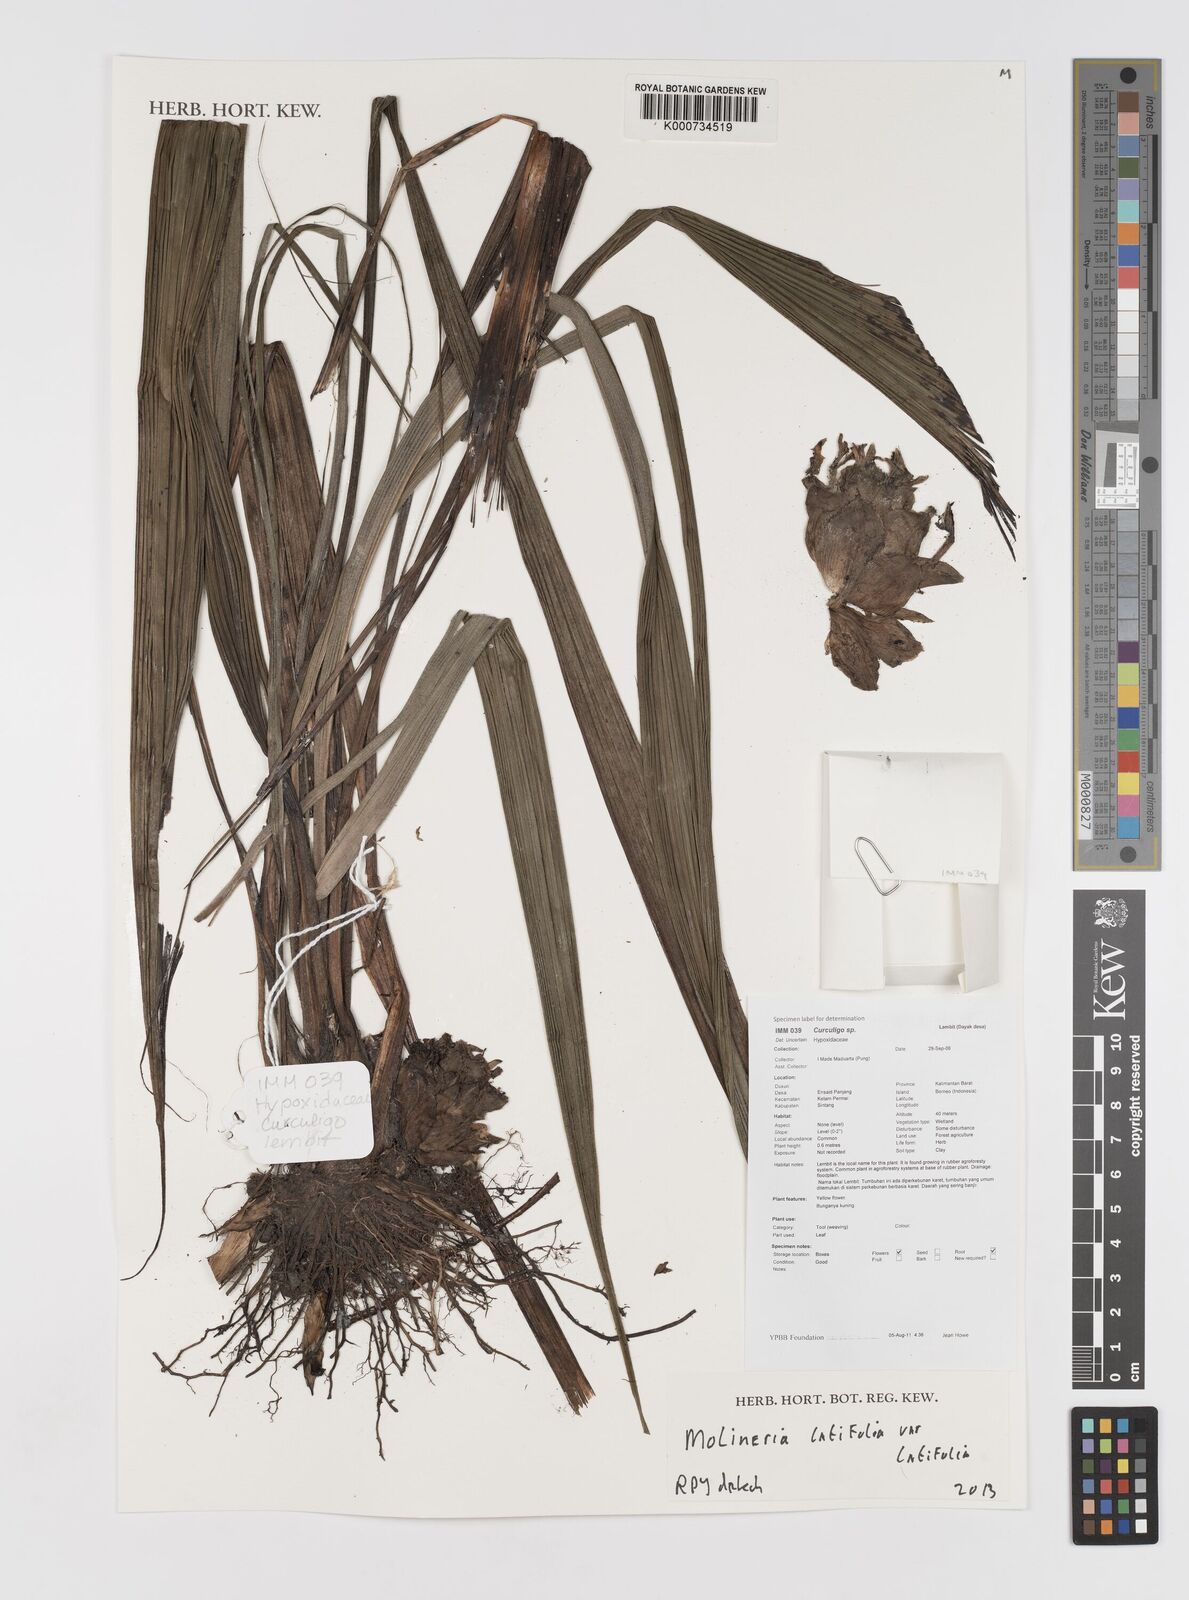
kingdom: Plantae
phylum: Tracheophyta
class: Liliopsida
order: Asparagales
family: Hypoxidaceae
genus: Curculigo
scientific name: Curculigo latifolia
